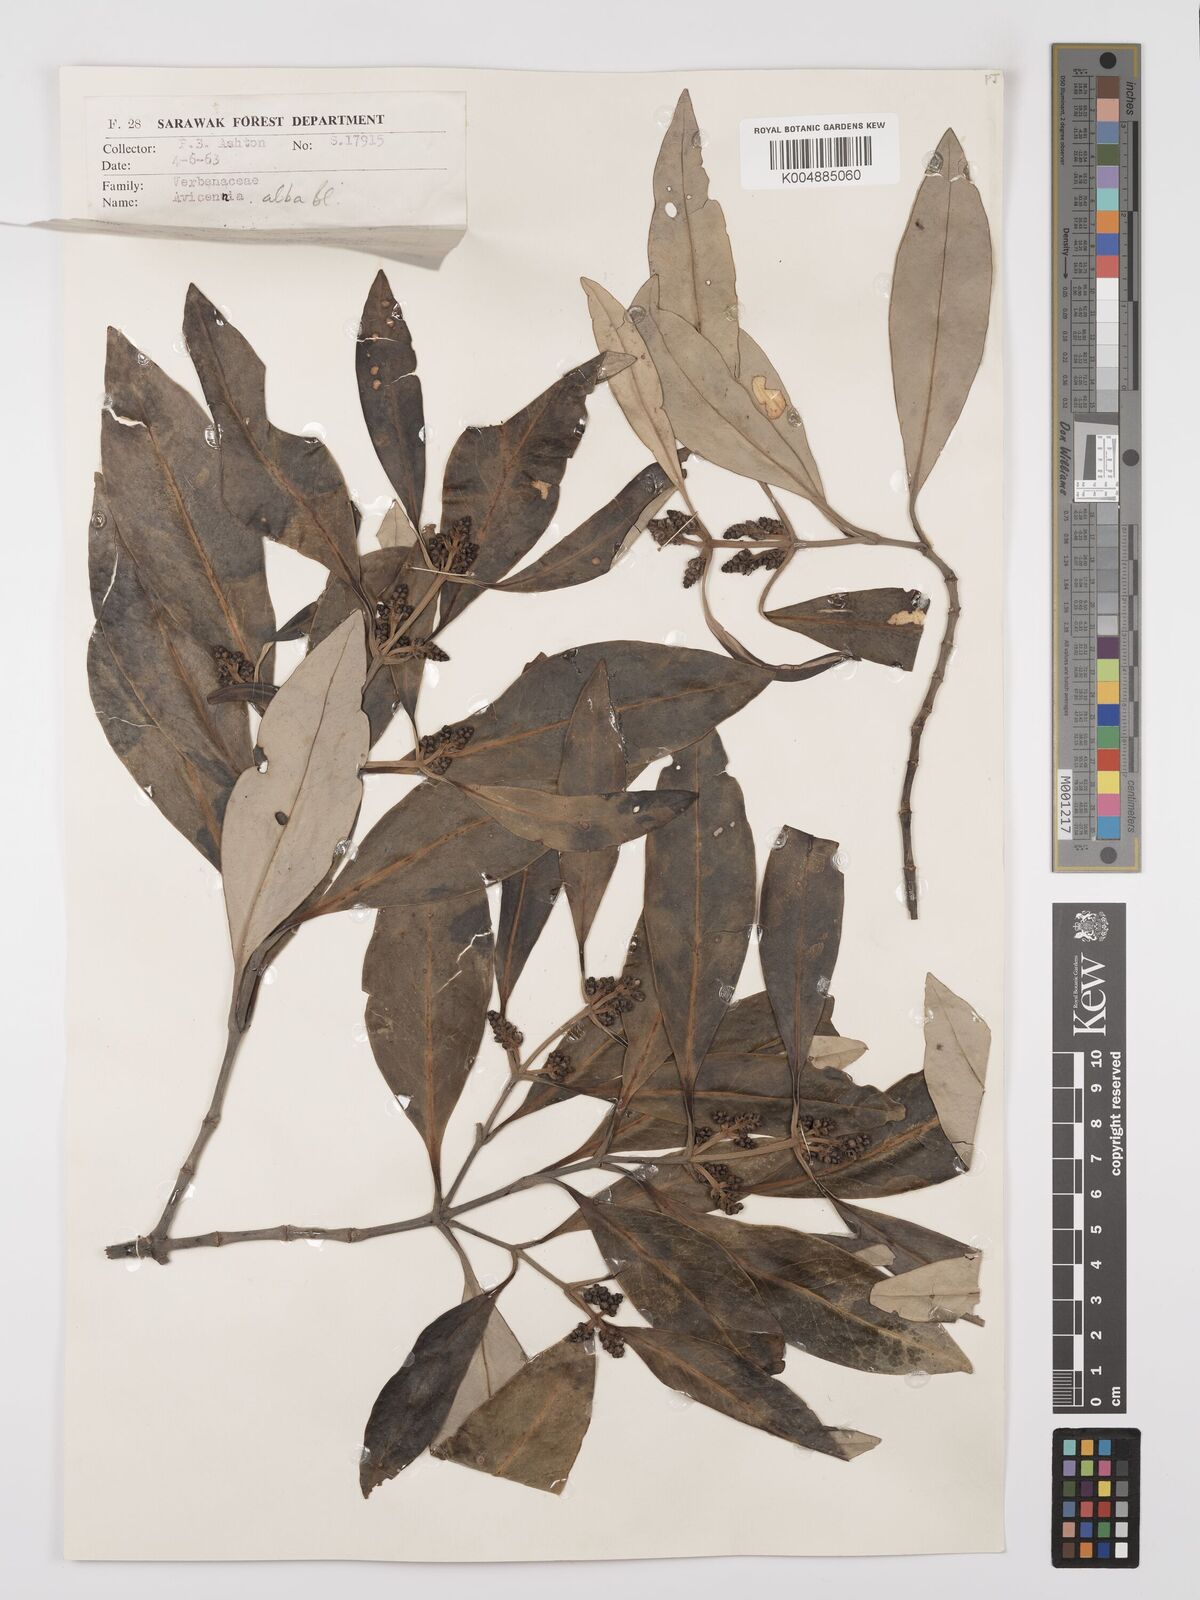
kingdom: Plantae
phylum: Tracheophyta
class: Magnoliopsida
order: Lamiales
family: Acanthaceae
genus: Avicennia
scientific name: Avicennia alba
